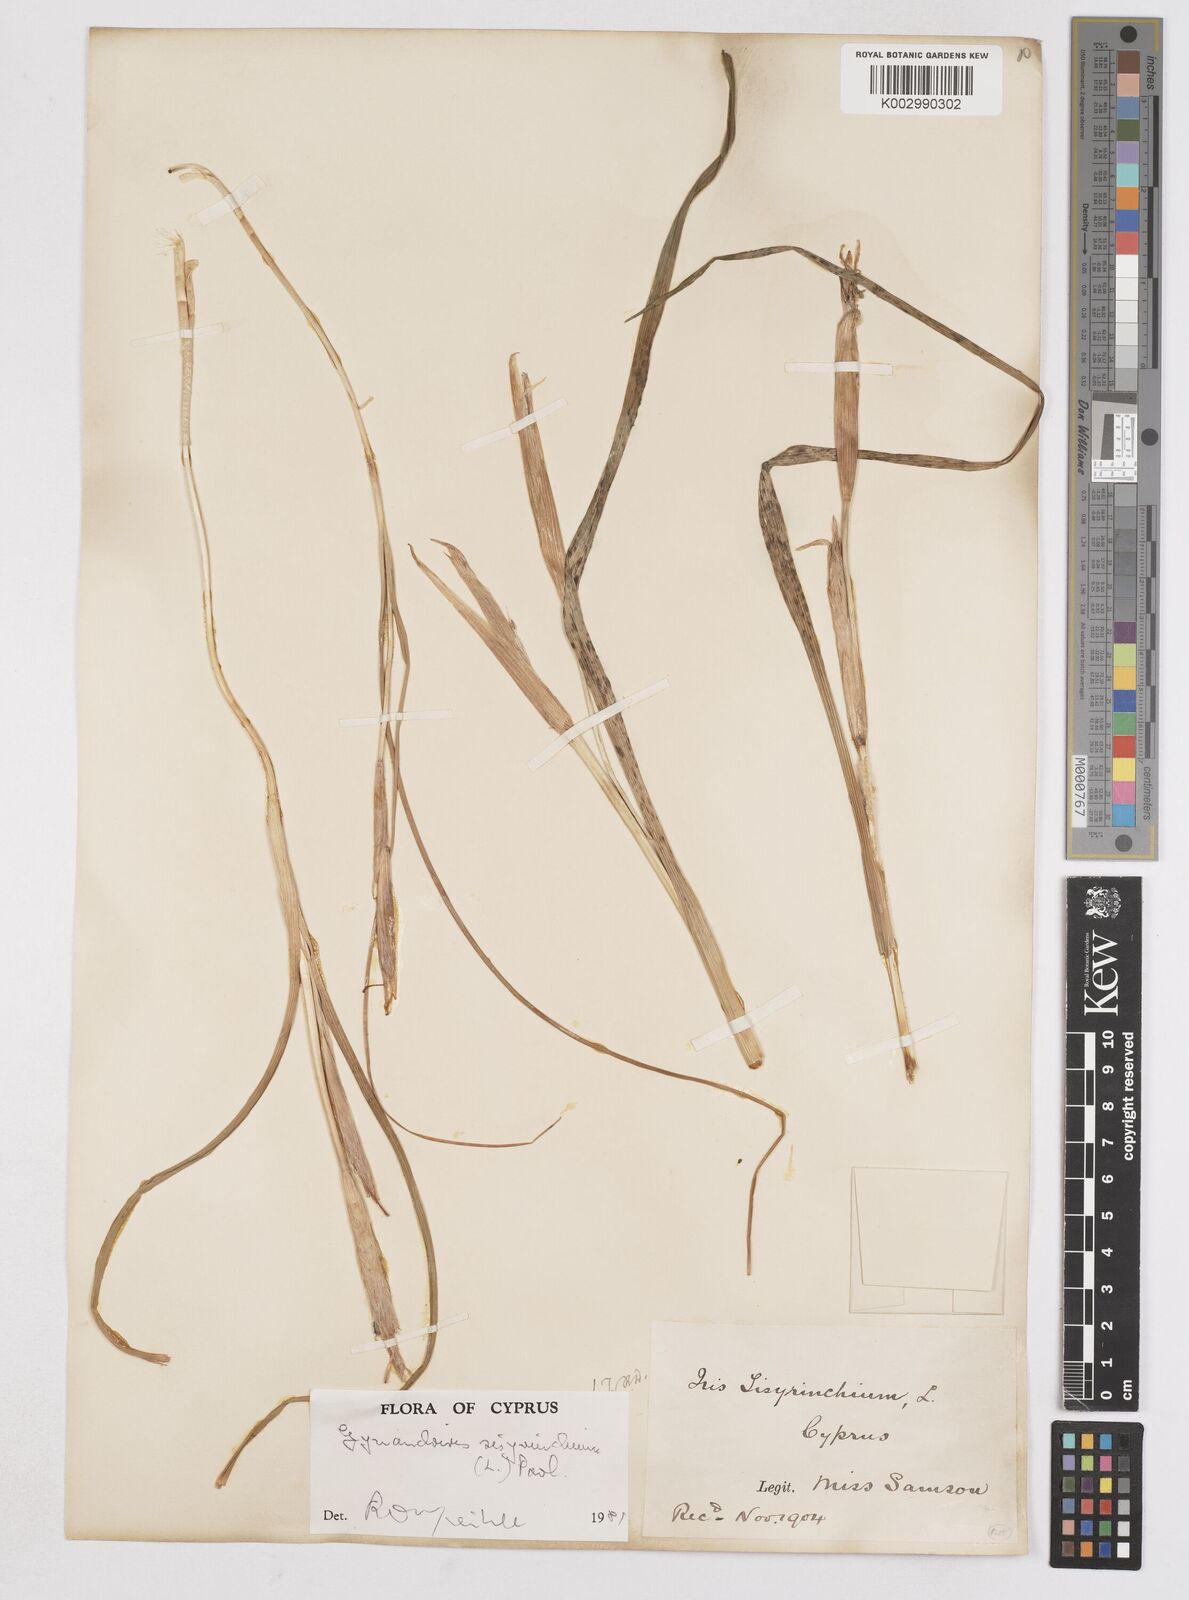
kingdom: Plantae
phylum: Tracheophyta
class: Liliopsida
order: Asparagales
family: Iridaceae
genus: Moraea
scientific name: Moraea sisyrinchium
